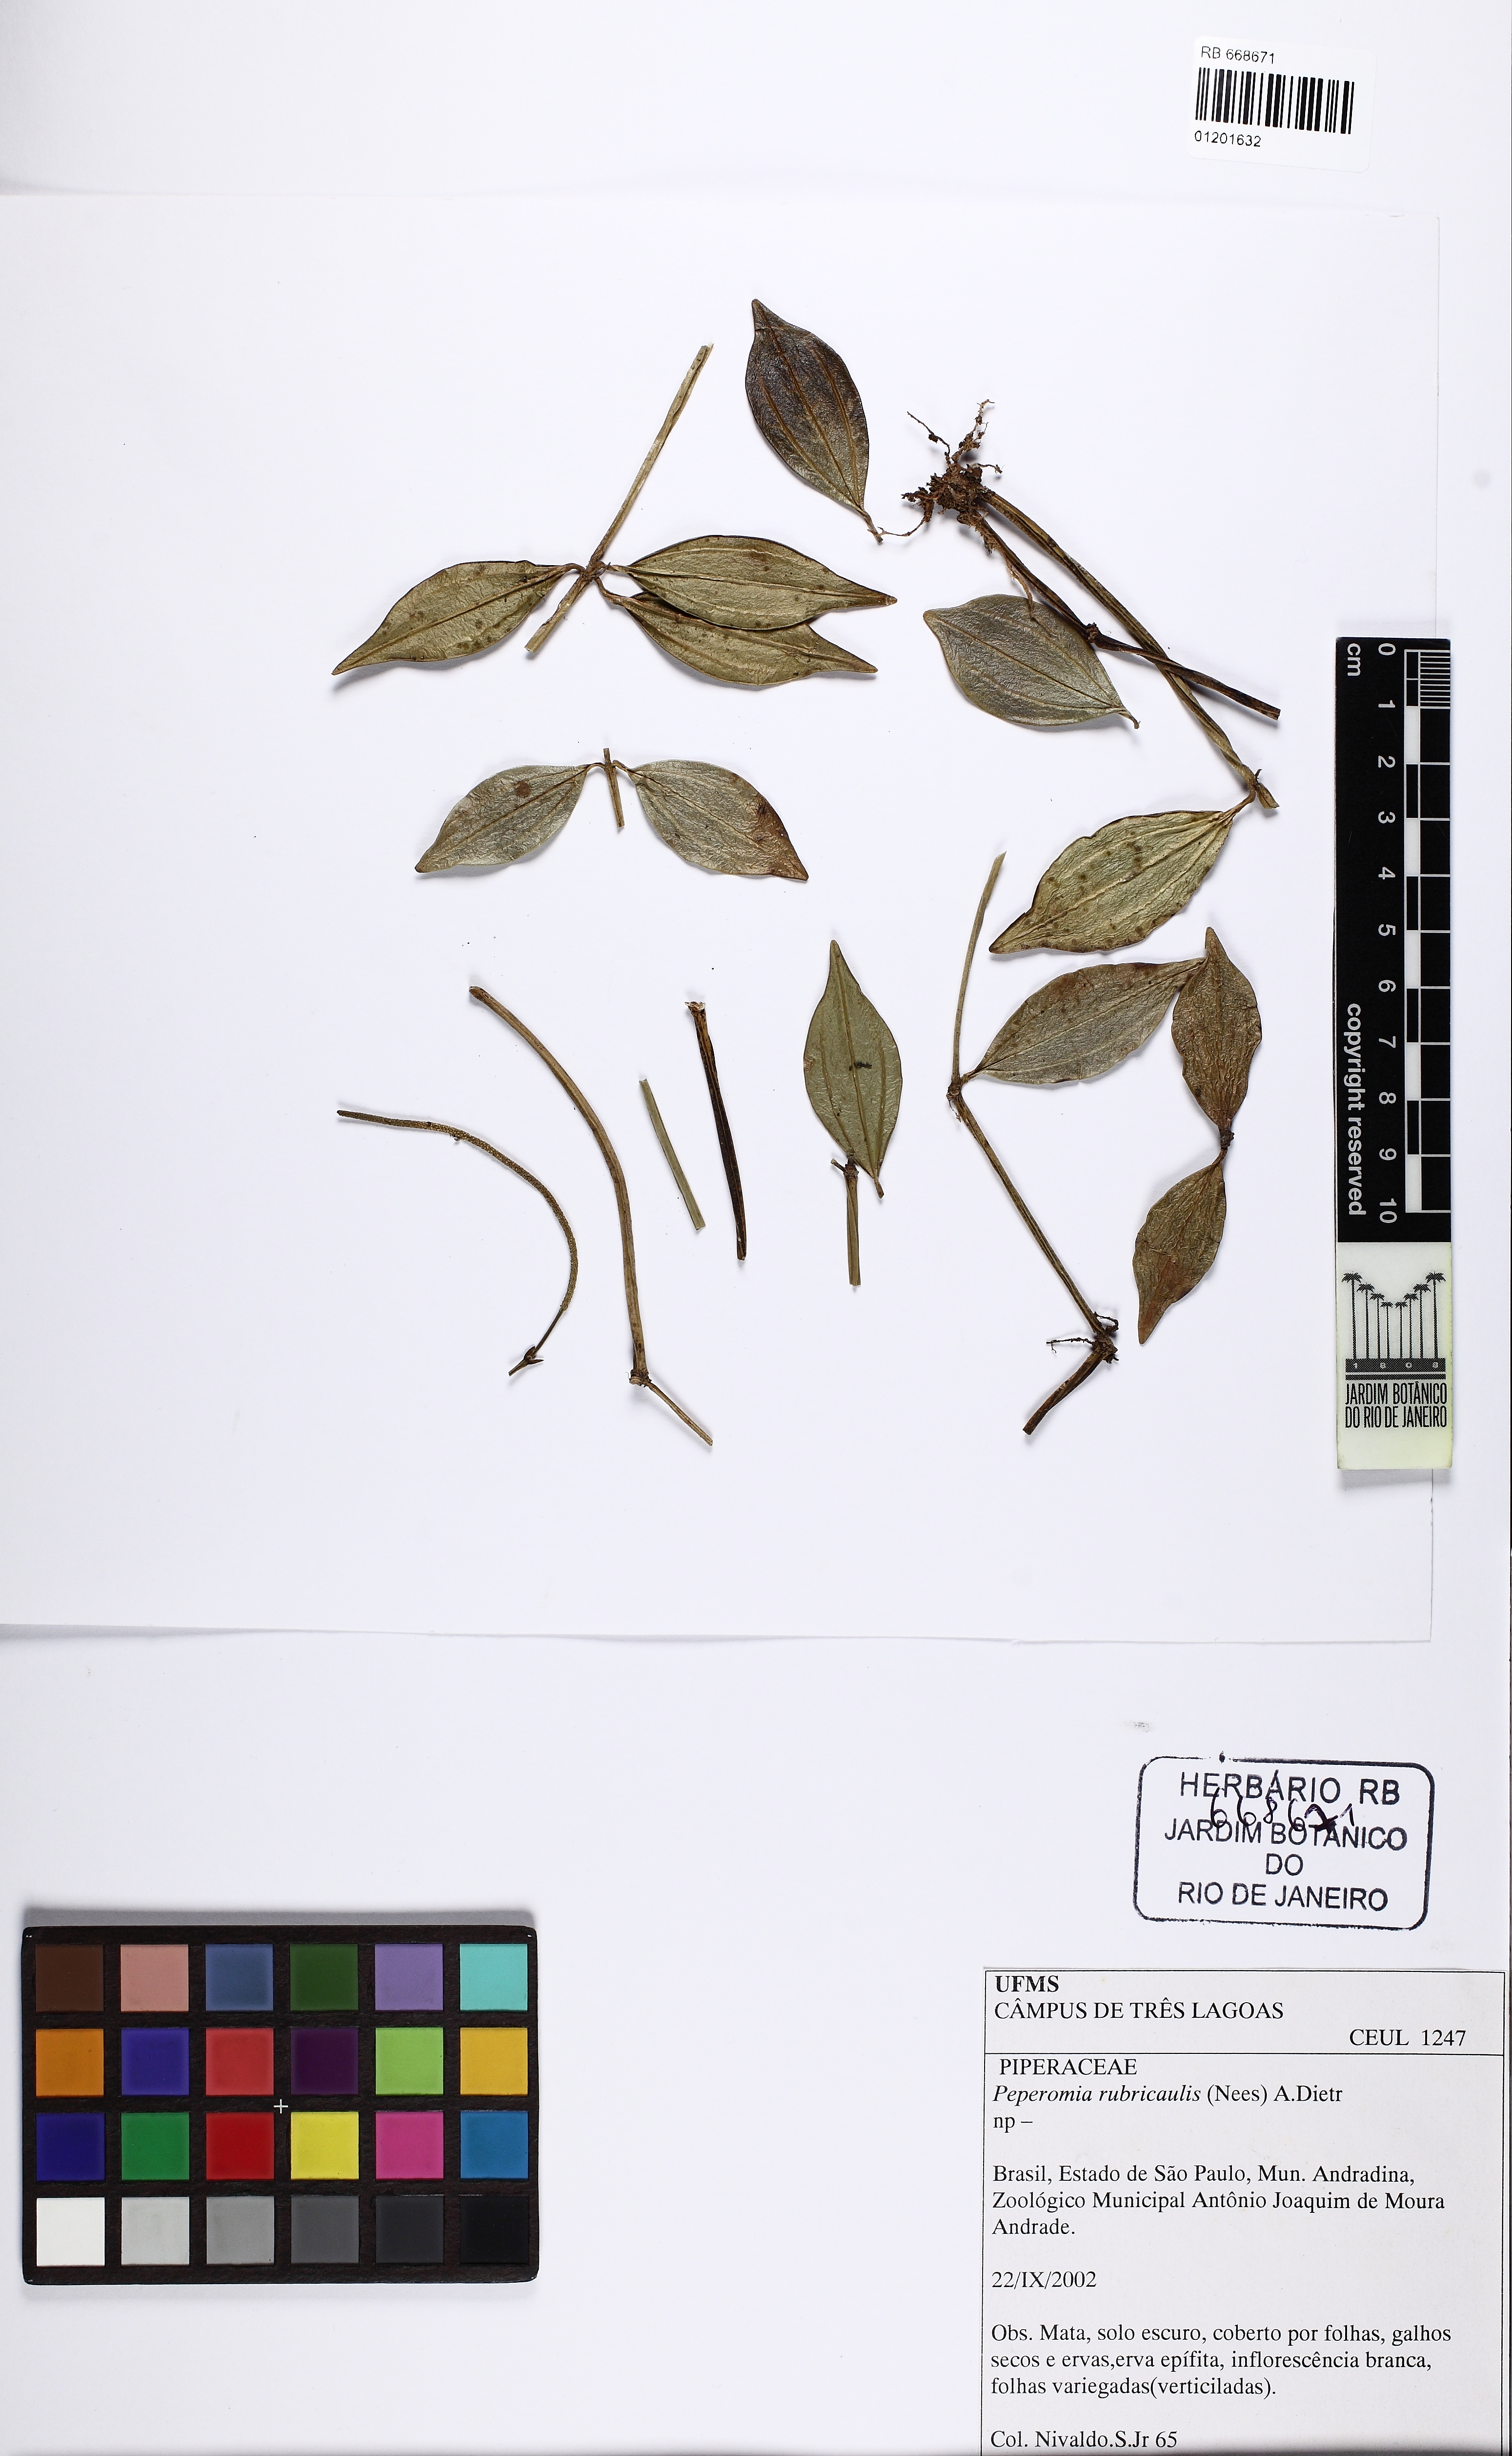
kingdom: Plantae
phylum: Tracheophyta
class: Magnoliopsida
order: Piperales
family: Piperaceae
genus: Peperomia
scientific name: Peperomia tetragona
